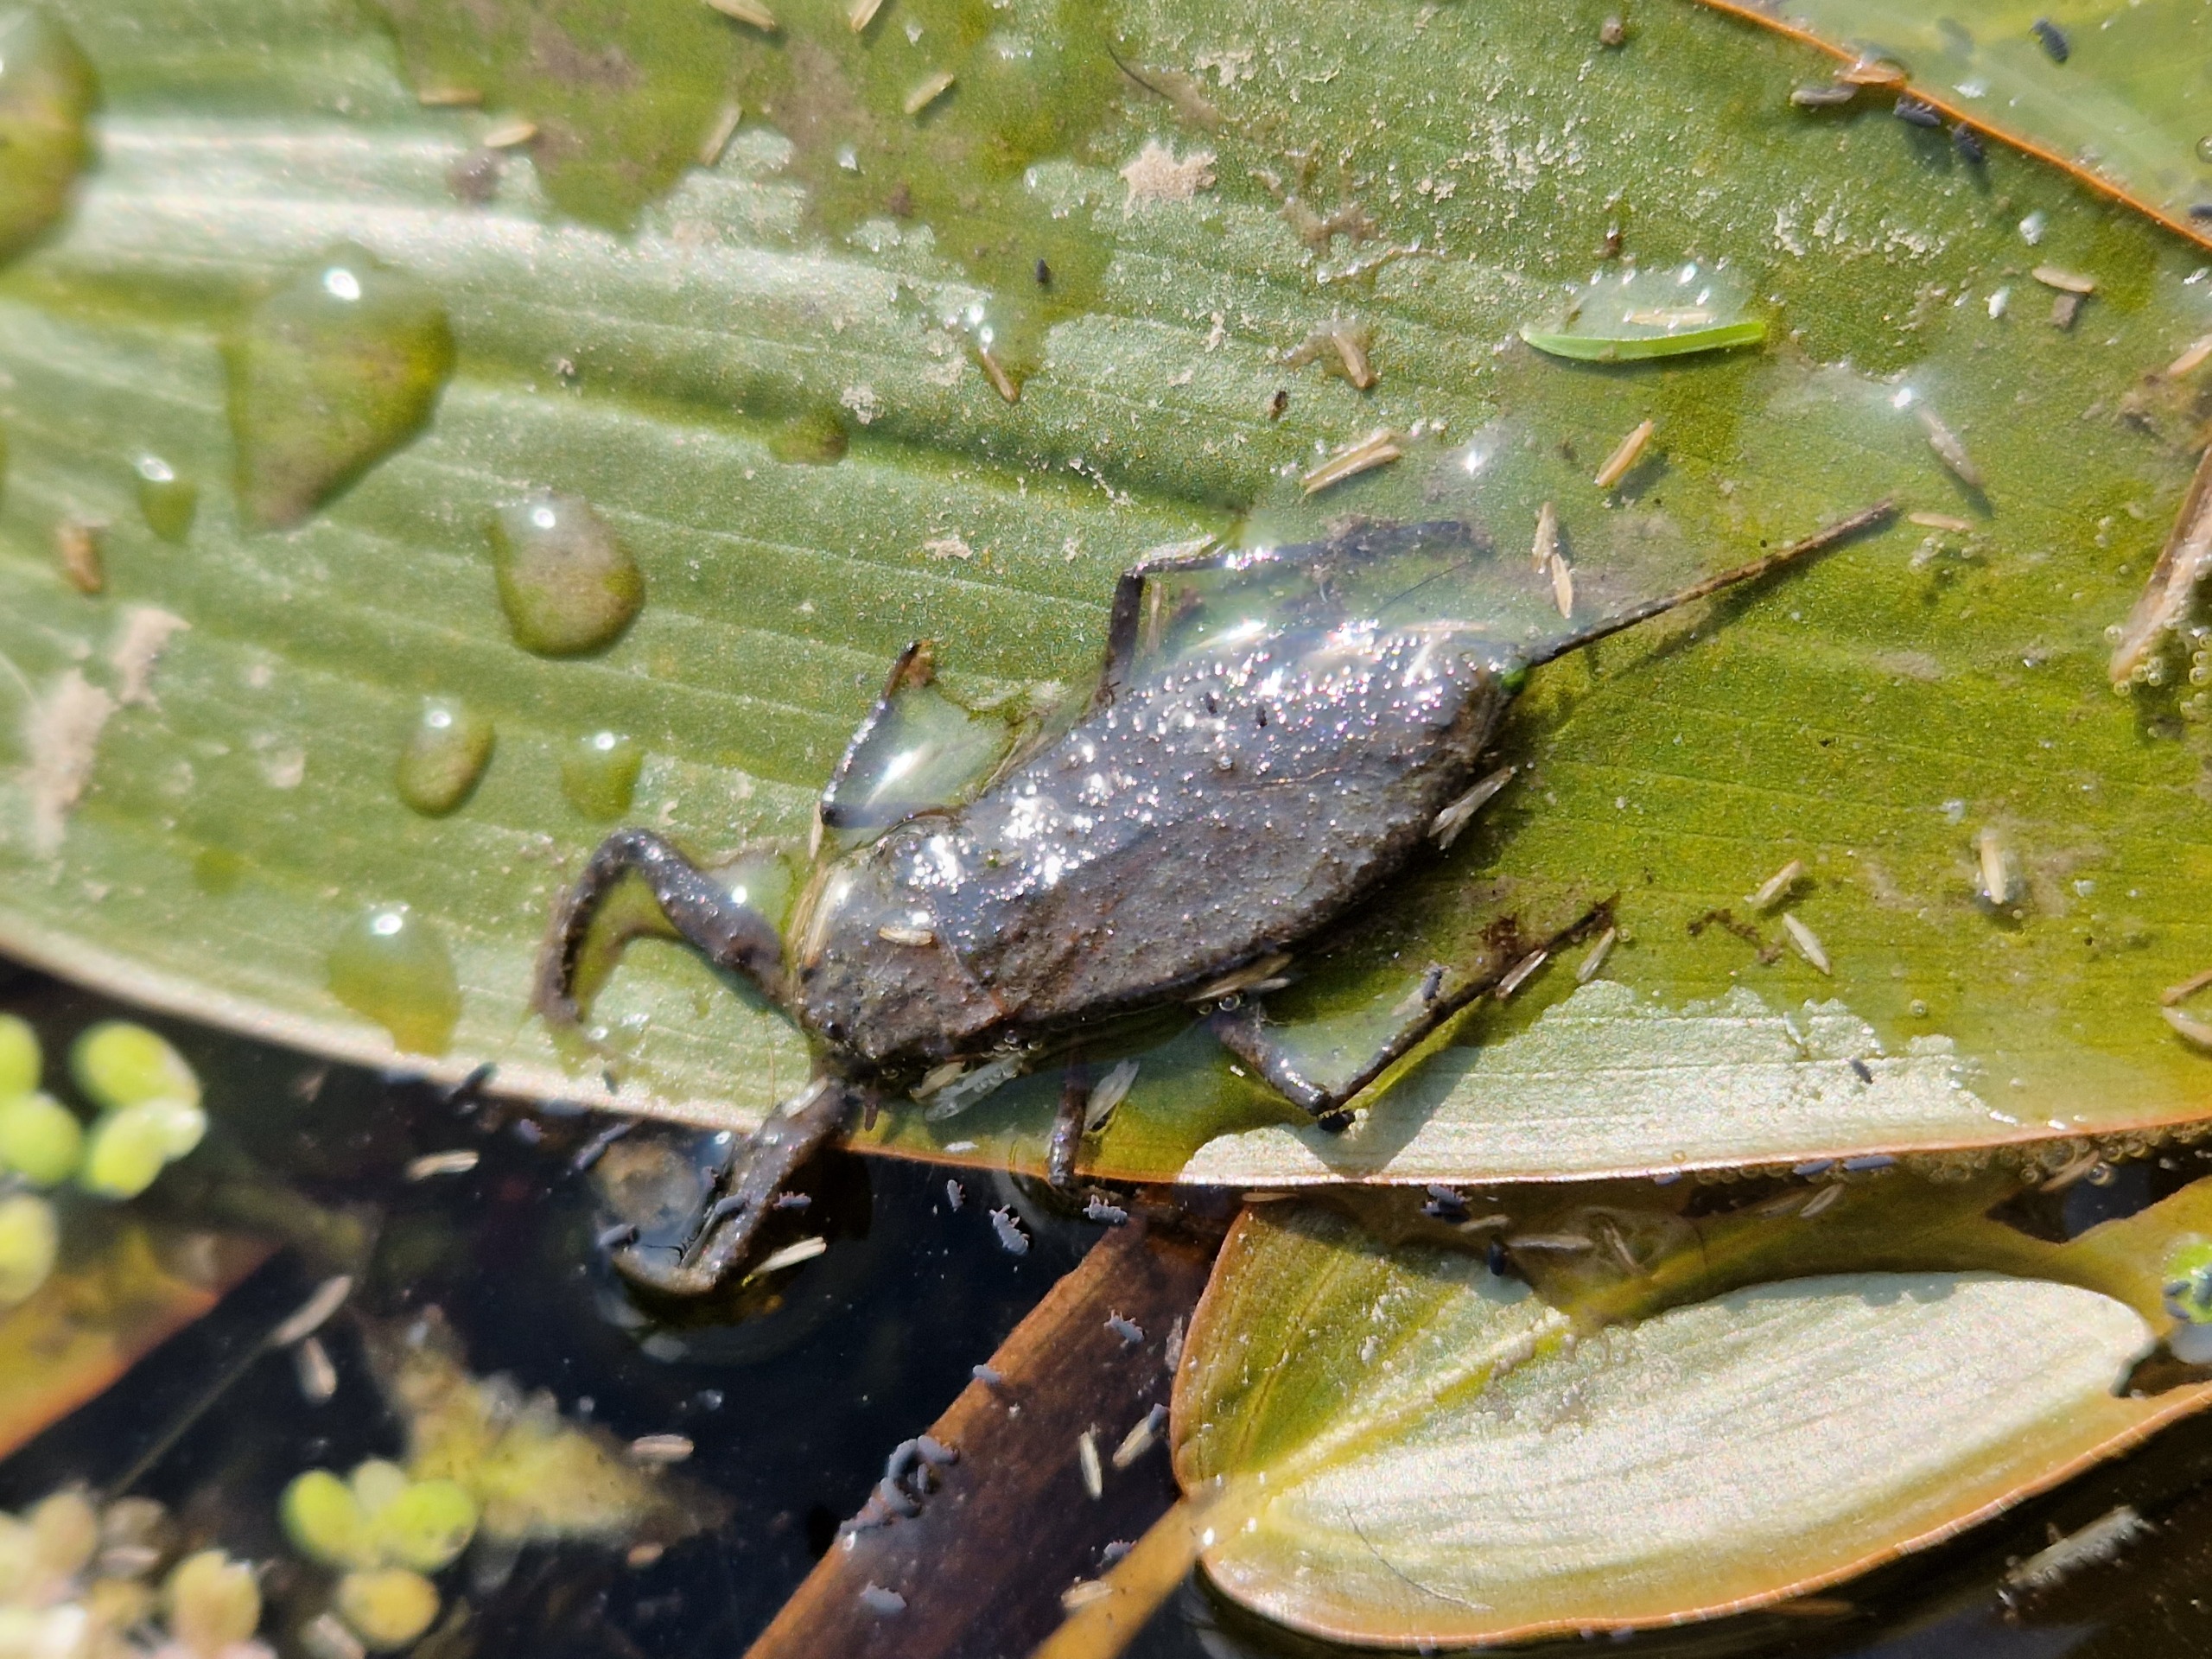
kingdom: Animalia
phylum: Arthropoda
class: Insecta
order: Hemiptera
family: Nepidae
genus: Nepa
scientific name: Nepa cinerea
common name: Skorpiontæge
